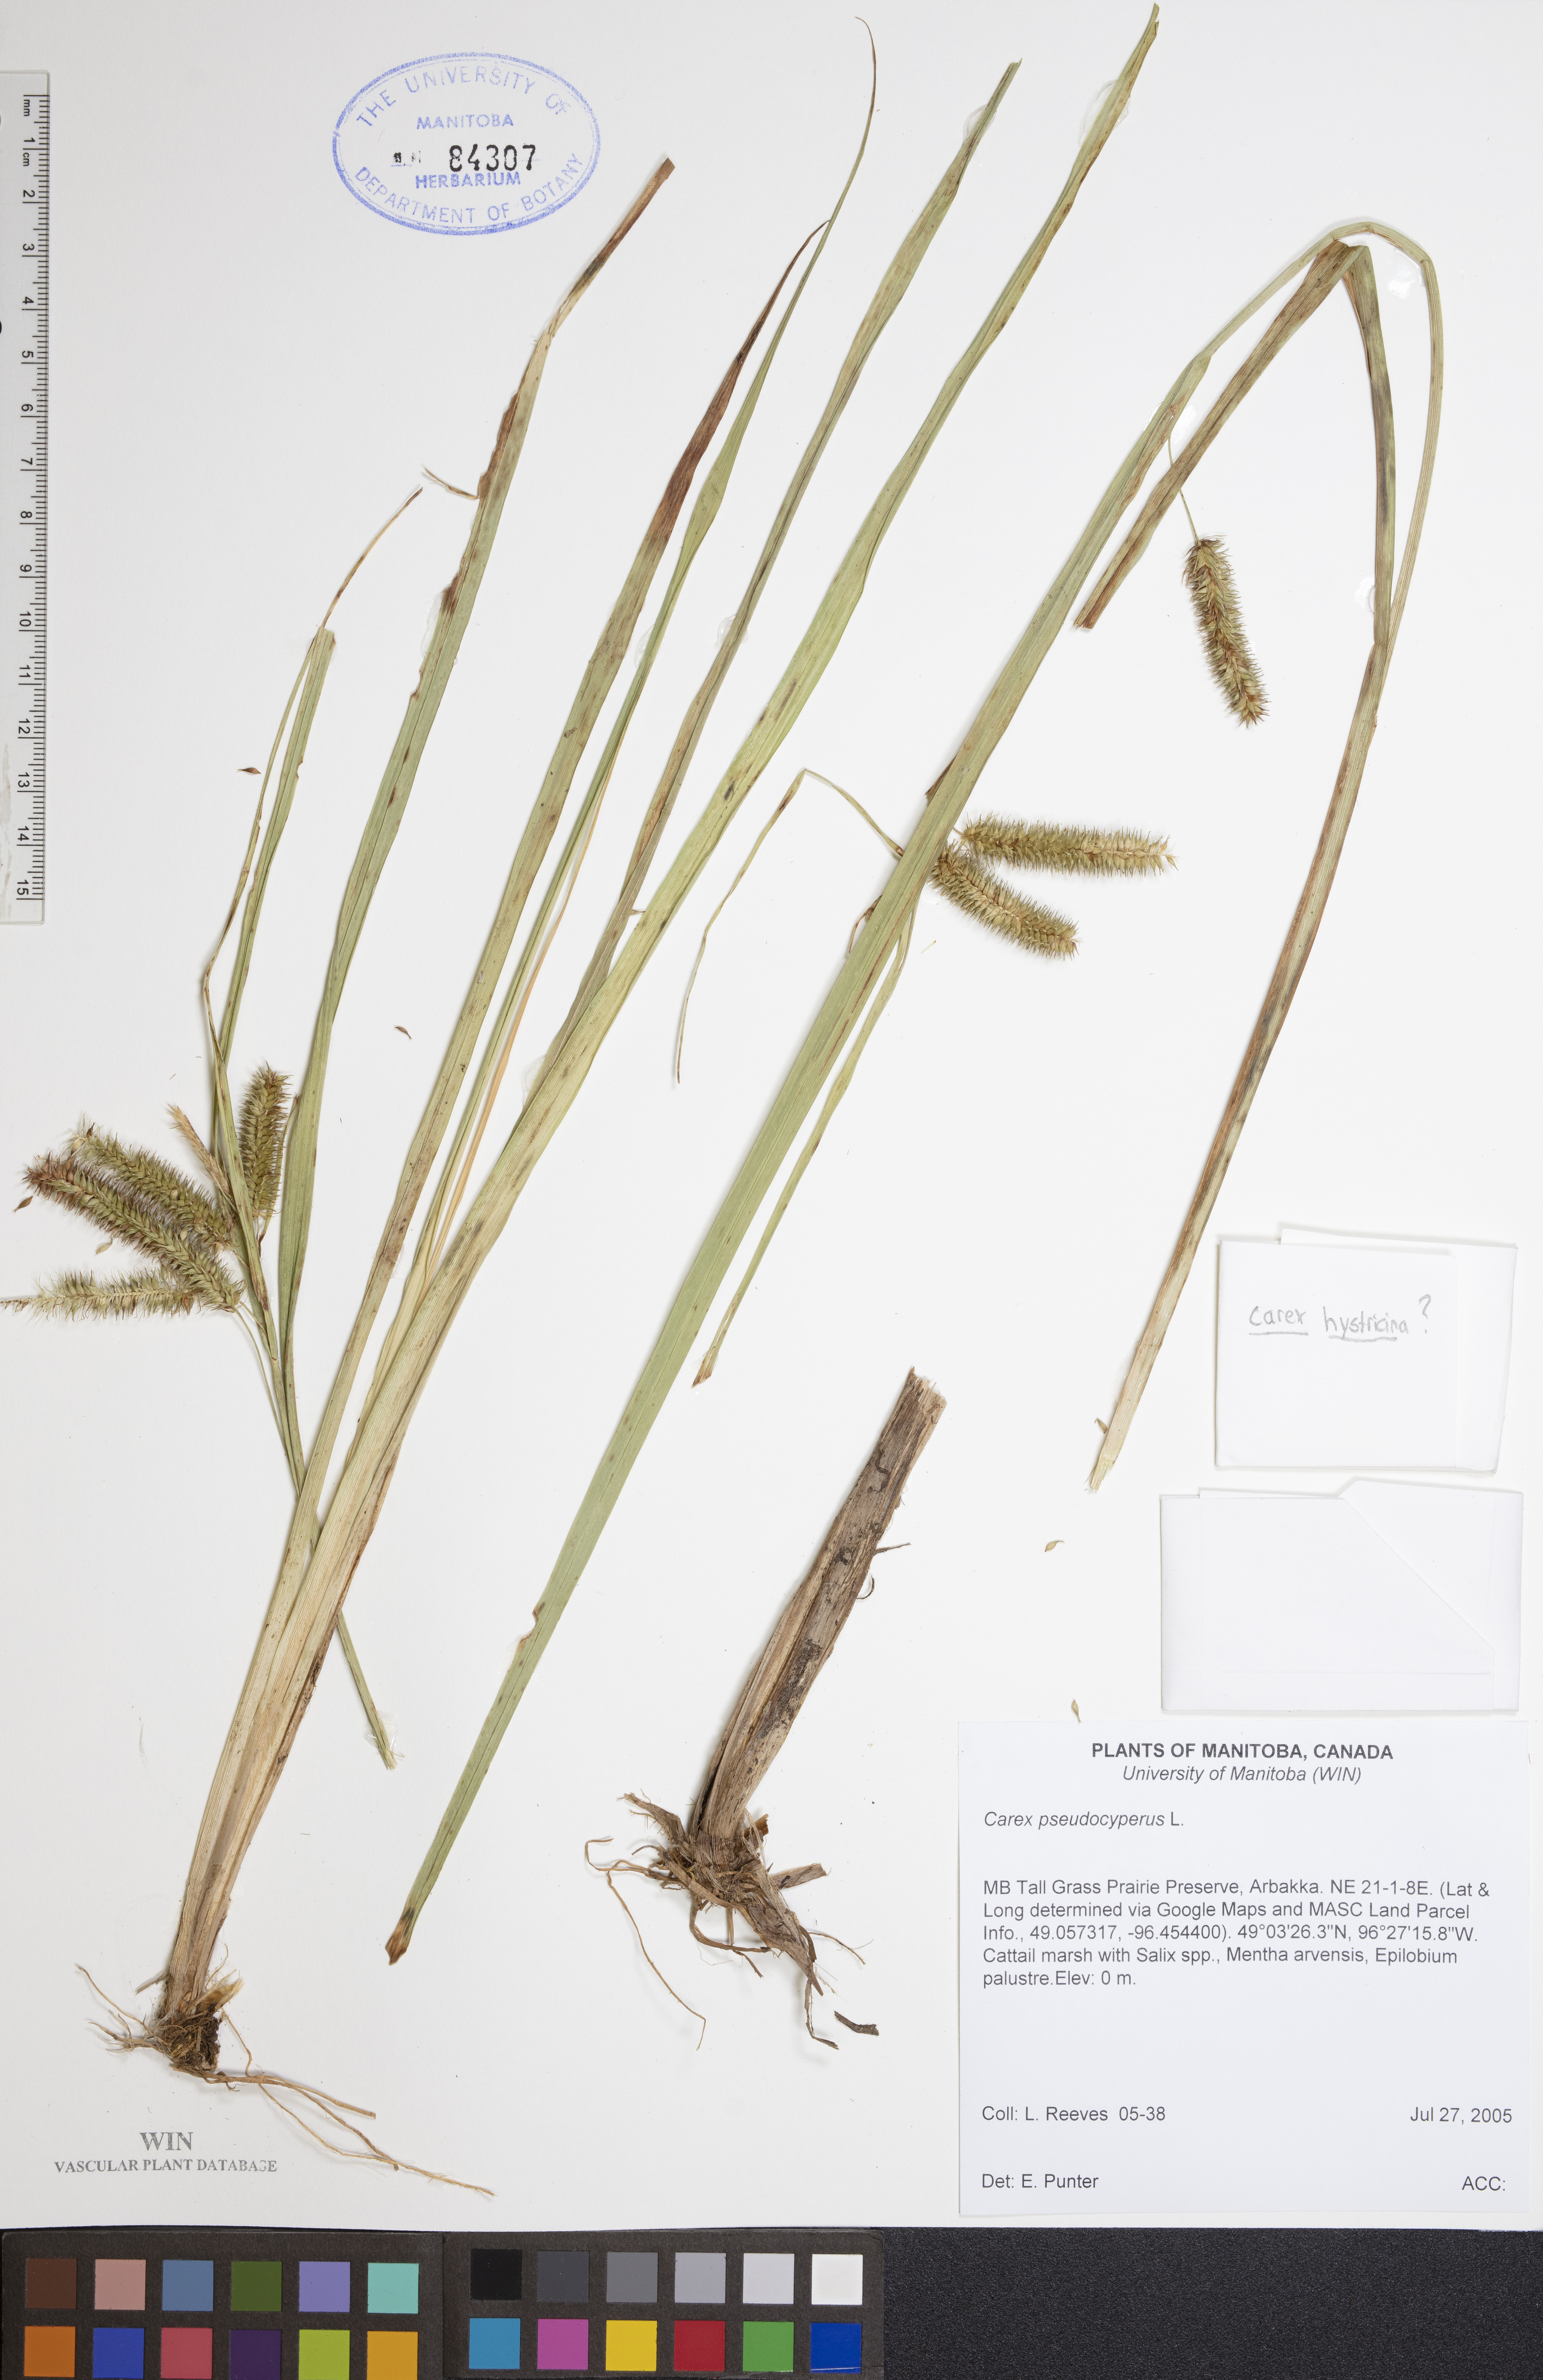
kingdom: Plantae
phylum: Tracheophyta
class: Liliopsida
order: Poales
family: Cyperaceae
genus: Carex
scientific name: Carex pseudocyperus
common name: Cyperus sedge
